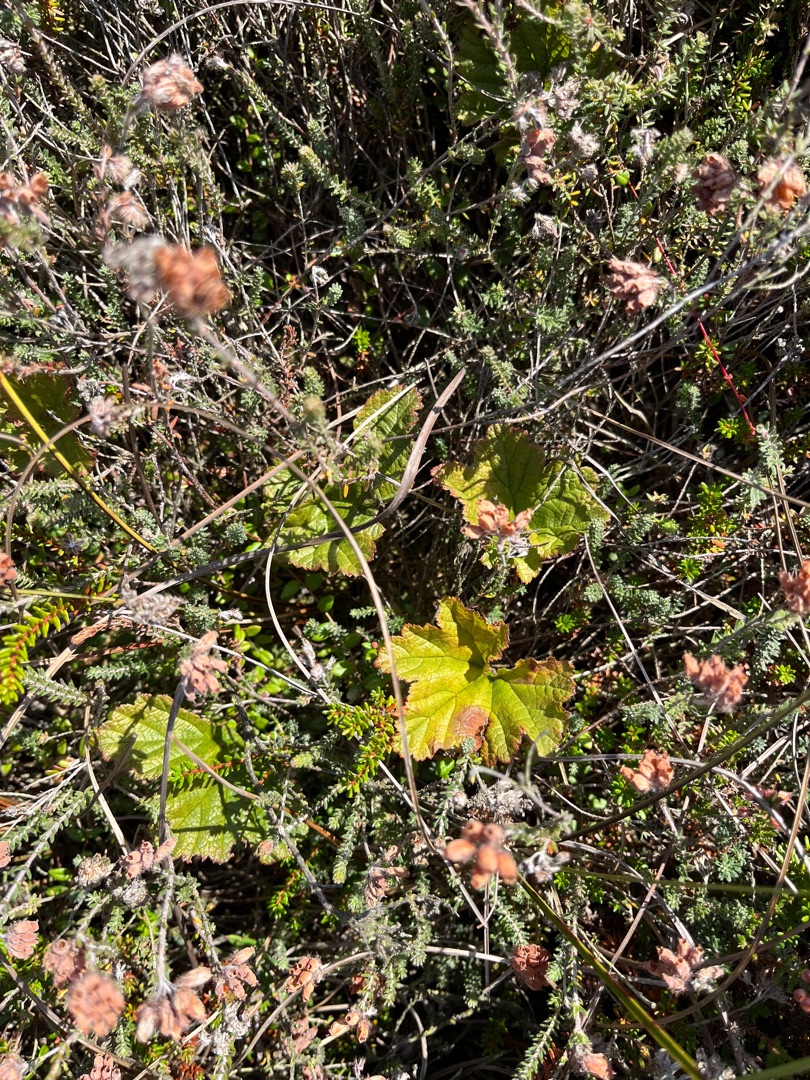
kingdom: Plantae
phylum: Tracheophyta
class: Magnoliopsida
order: Rosales
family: Rosaceae
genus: Rubus
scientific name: Rubus chamaemorus
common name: Multebær
